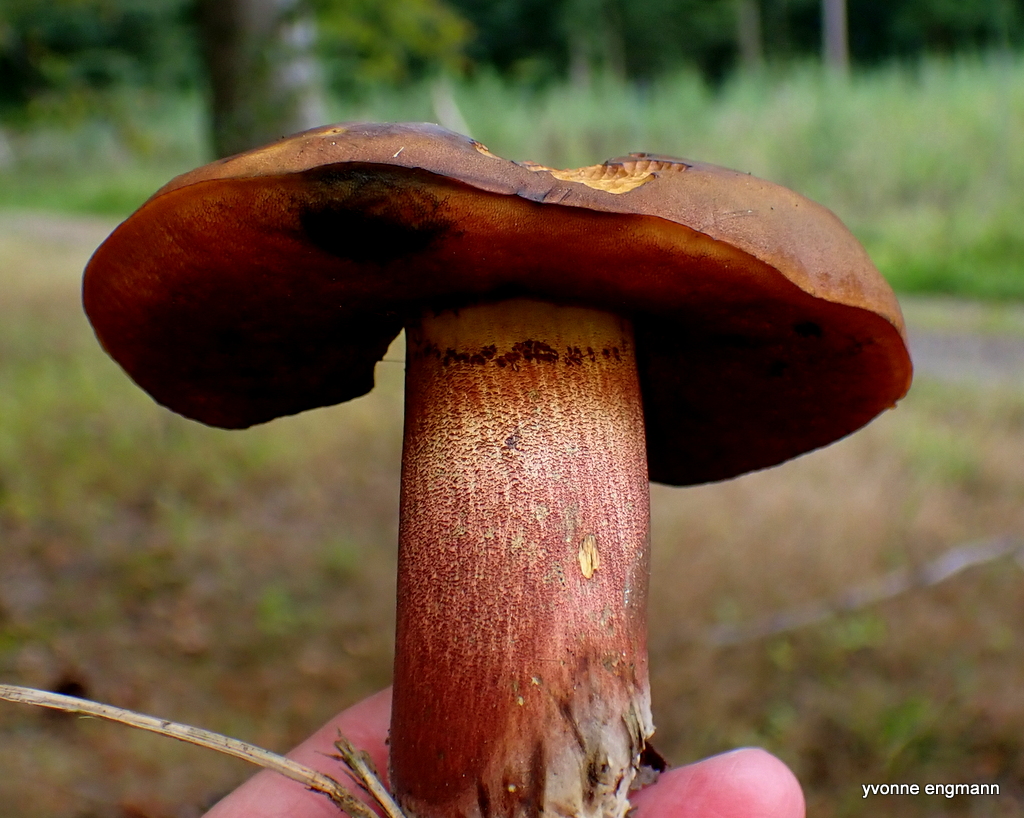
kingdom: Fungi
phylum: Basidiomycota
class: Agaricomycetes
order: Boletales
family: Boletaceae
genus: Neoboletus
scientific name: Neoboletus erythropus
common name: punktstokket indigorørhat
